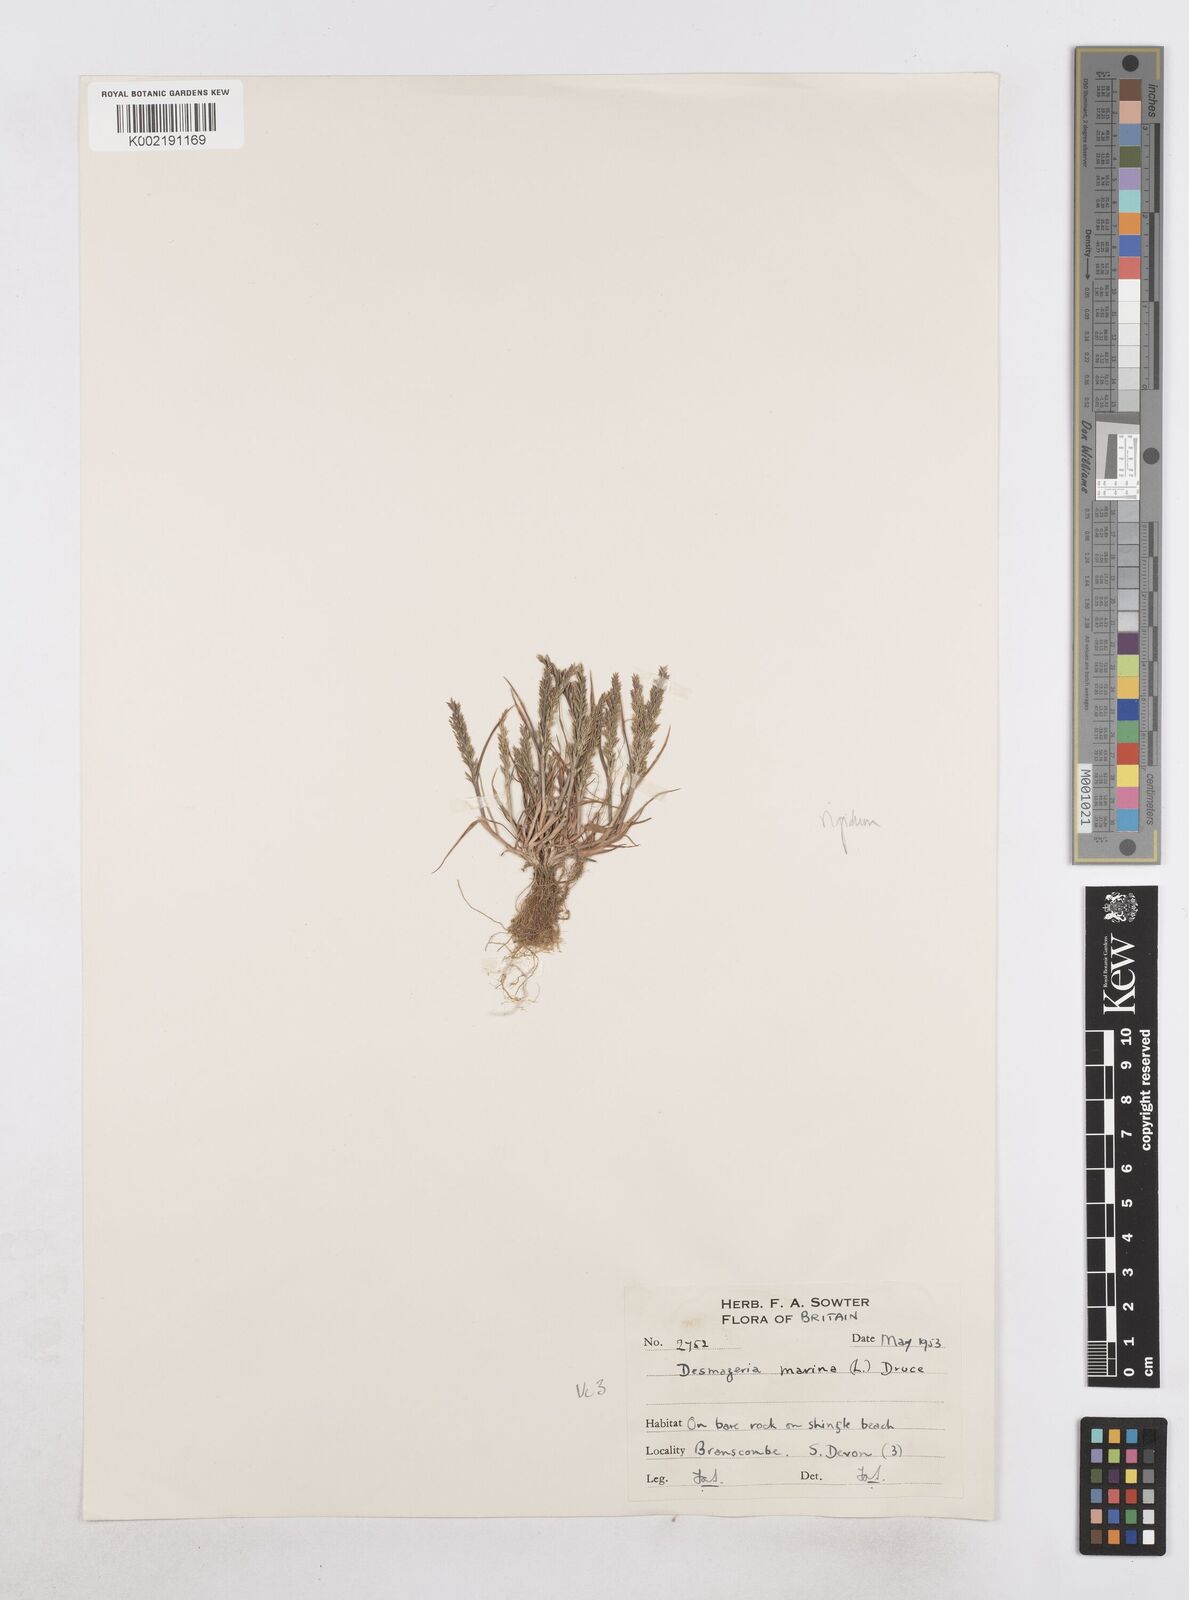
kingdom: Plantae
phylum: Tracheophyta
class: Liliopsida
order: Poales
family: Poaceae
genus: Catapodium
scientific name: Catapodium rigidum
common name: Fern-grass
